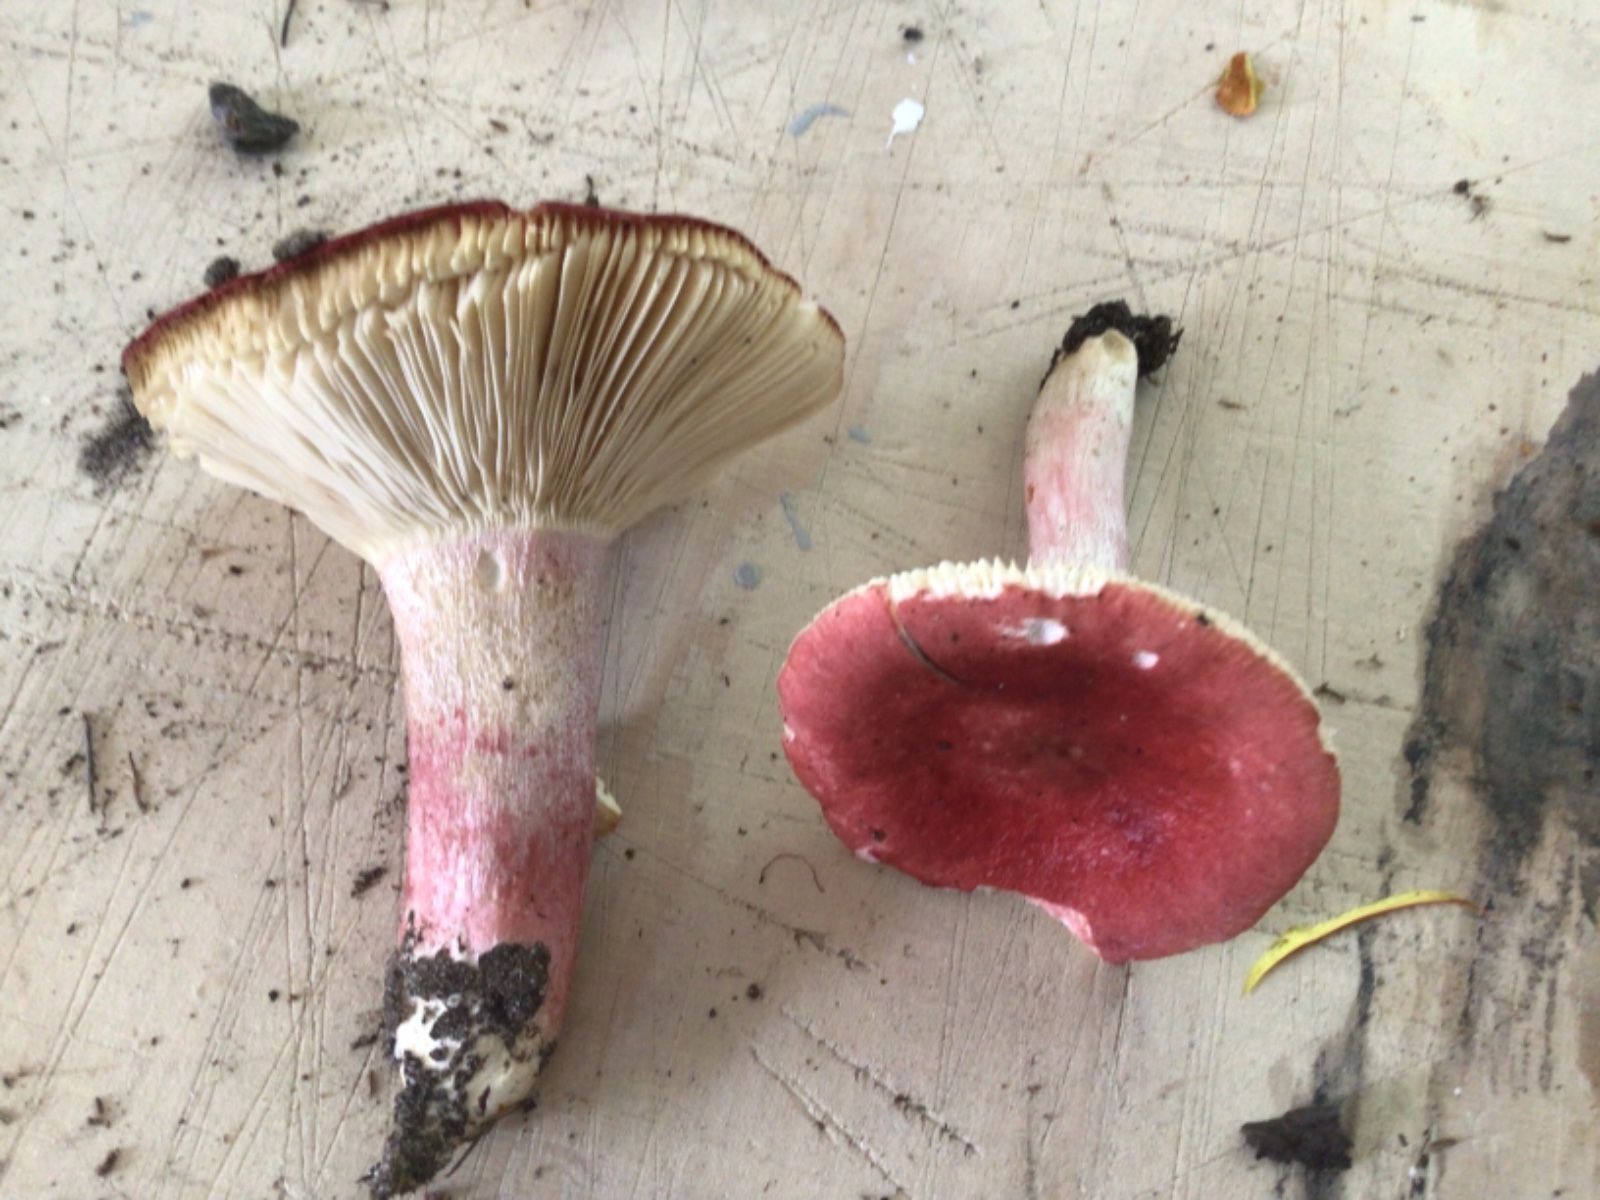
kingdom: Fungi
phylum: Basidiomycota
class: Agaricomycetes
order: Russulales
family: Russulaceae
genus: Russula
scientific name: Russula sanguinea
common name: blodrød skørhat
